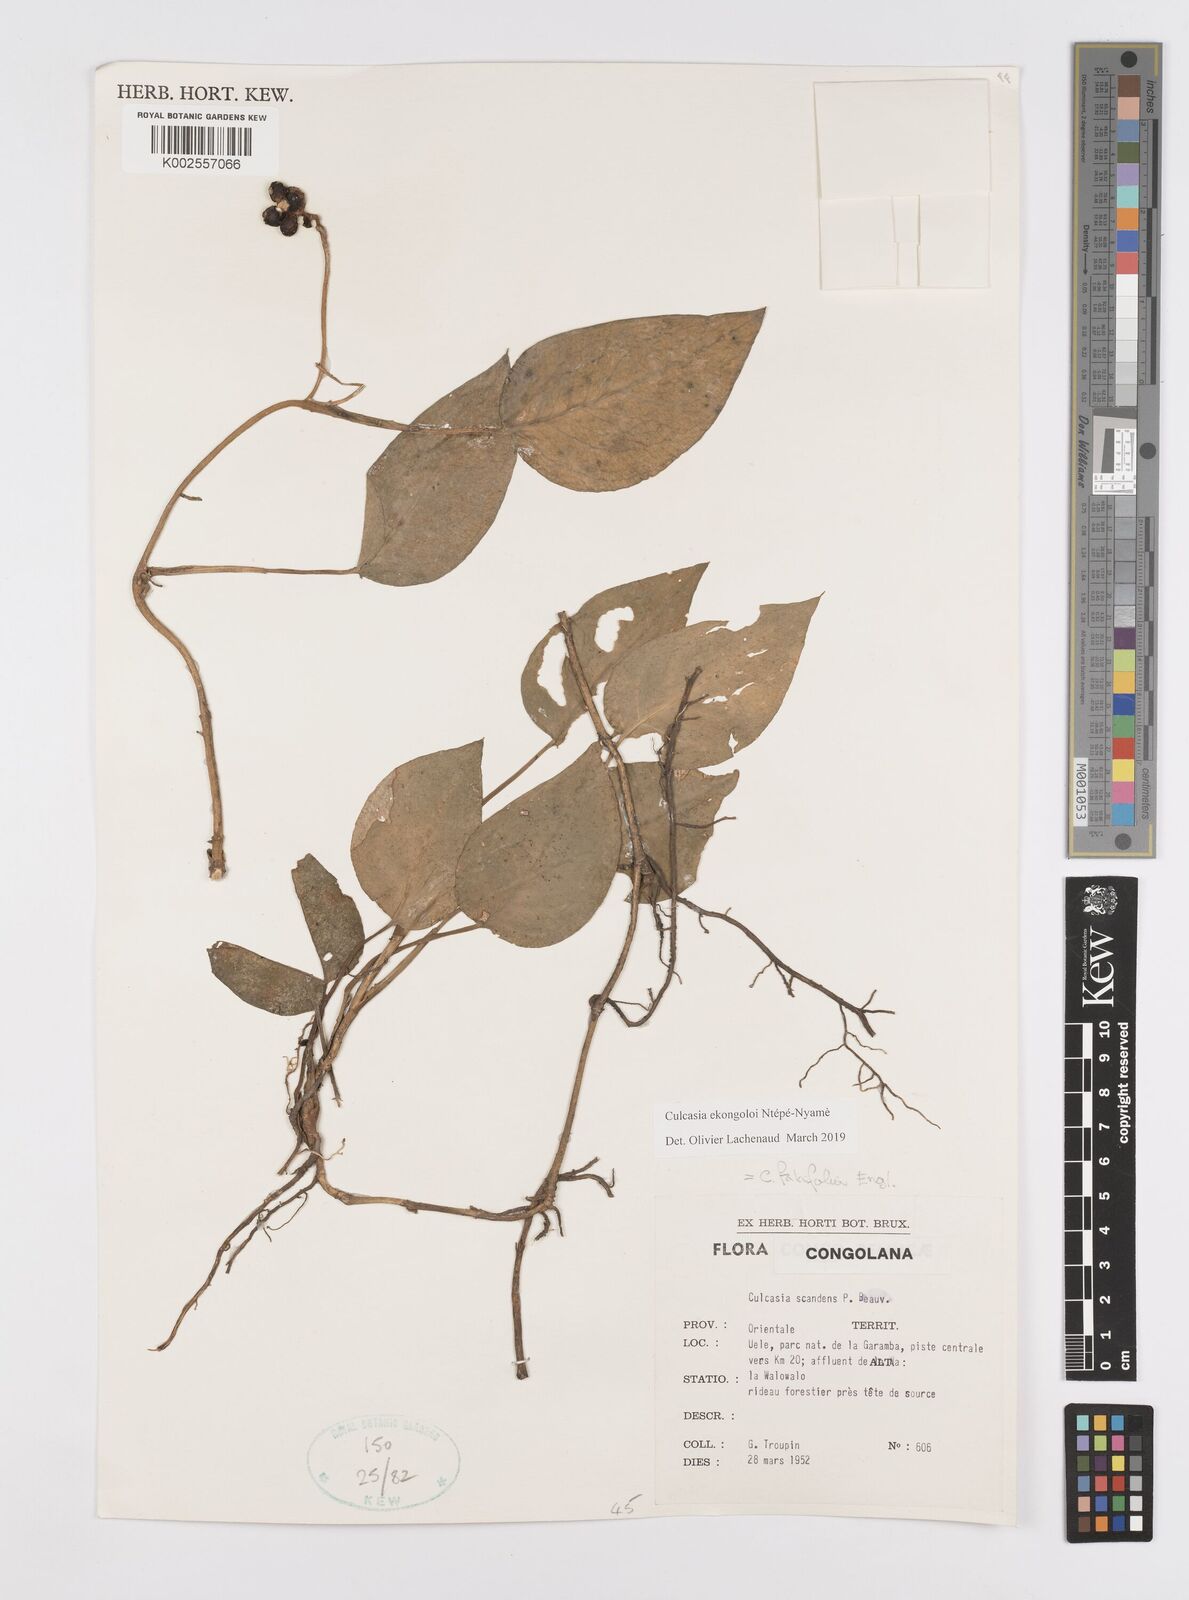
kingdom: Plantae
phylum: Tracheophyta
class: Liliopsida
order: Alismatales
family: Araceae
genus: Culcasia
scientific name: Culcasia ekongoloi
